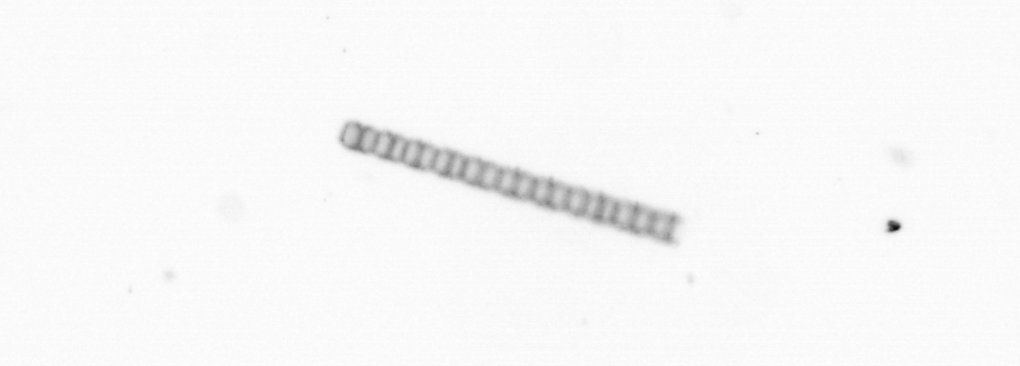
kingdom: Chromista
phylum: Ochrophyta
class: Bacillariophyceae
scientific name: Bacillariophyceae
